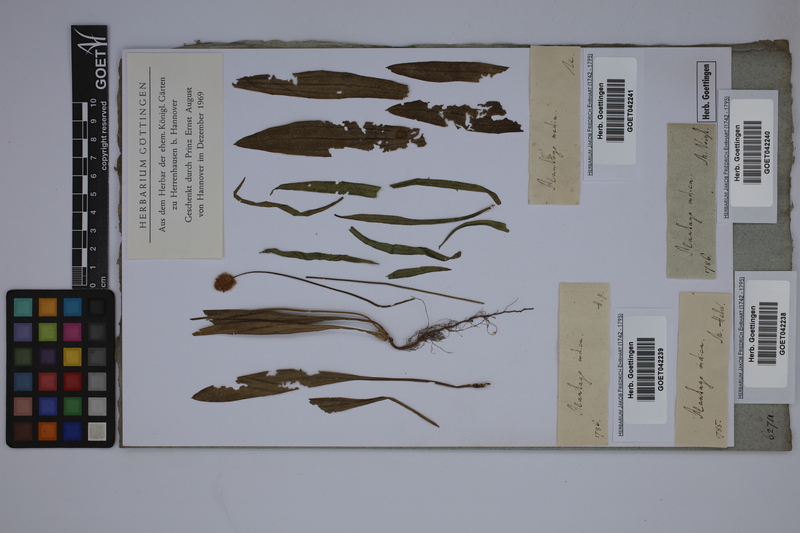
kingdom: Plantae
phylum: Tracheophyta
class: Magnoliopsida
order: Lamiales
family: Plantaginaceae
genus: Plantago
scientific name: Plantago arenaria
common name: Branched plantain
